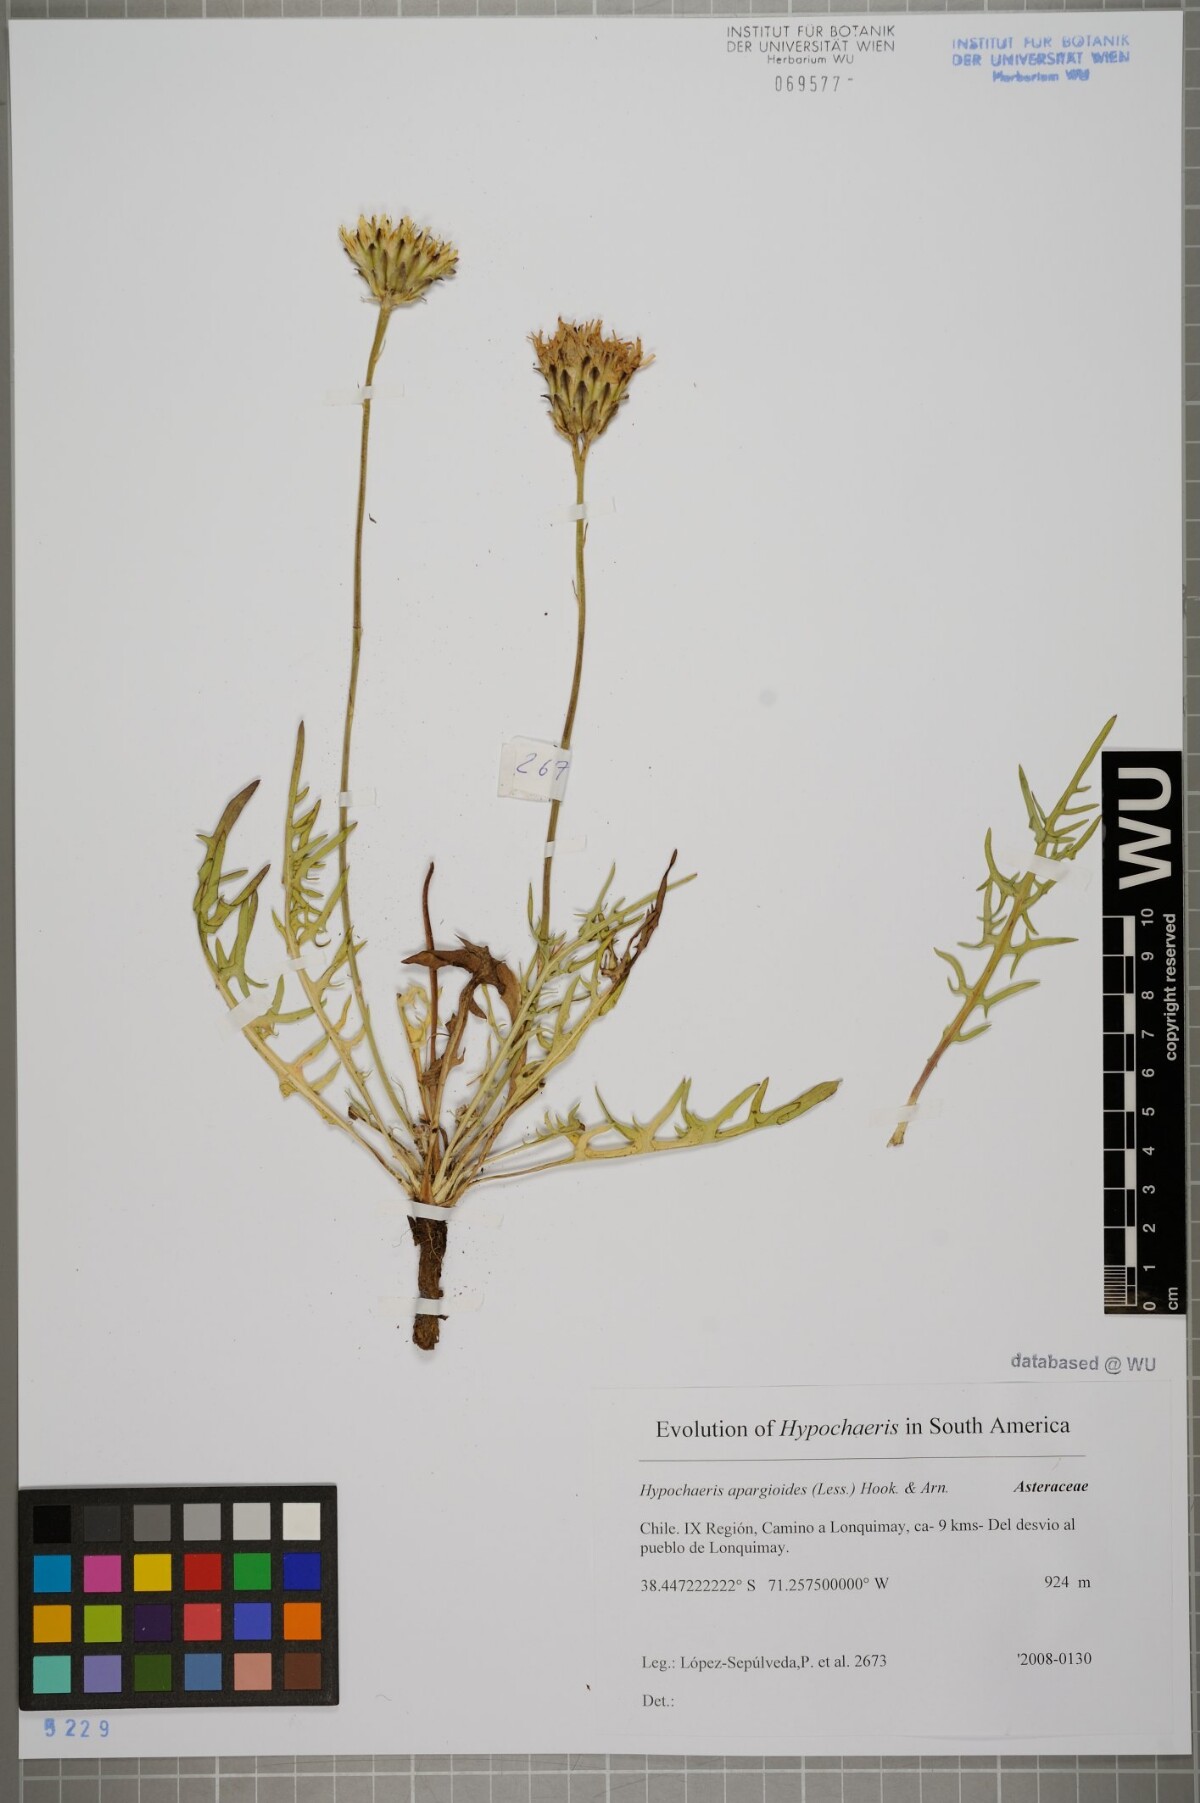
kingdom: Plantae
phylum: Tracheophyta
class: Magnoliopsida
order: Asterales
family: Asteraceae
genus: Hypochaeris
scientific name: Hypochaeris apargioides
